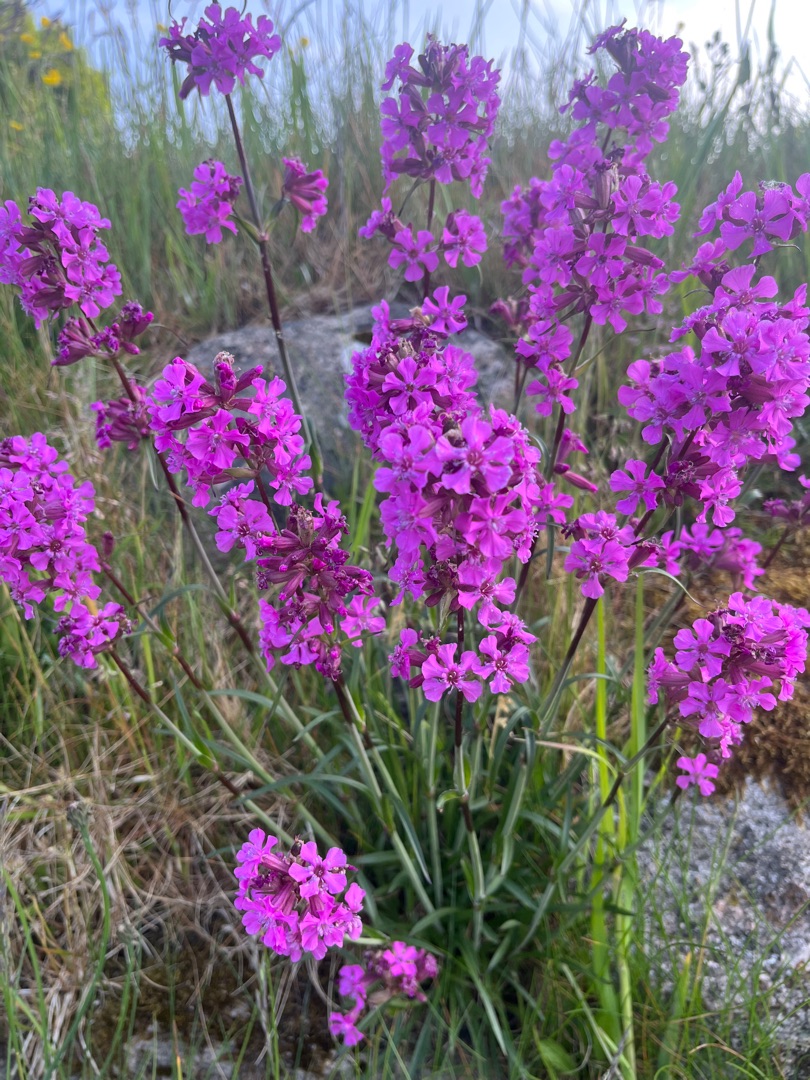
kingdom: Plantae
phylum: Tracheophyta
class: Magnoliopsida
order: Caryophyllales
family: Caryophyllaceae
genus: Viscaria
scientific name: Viscaria vulgaris
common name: Tjærenellike
